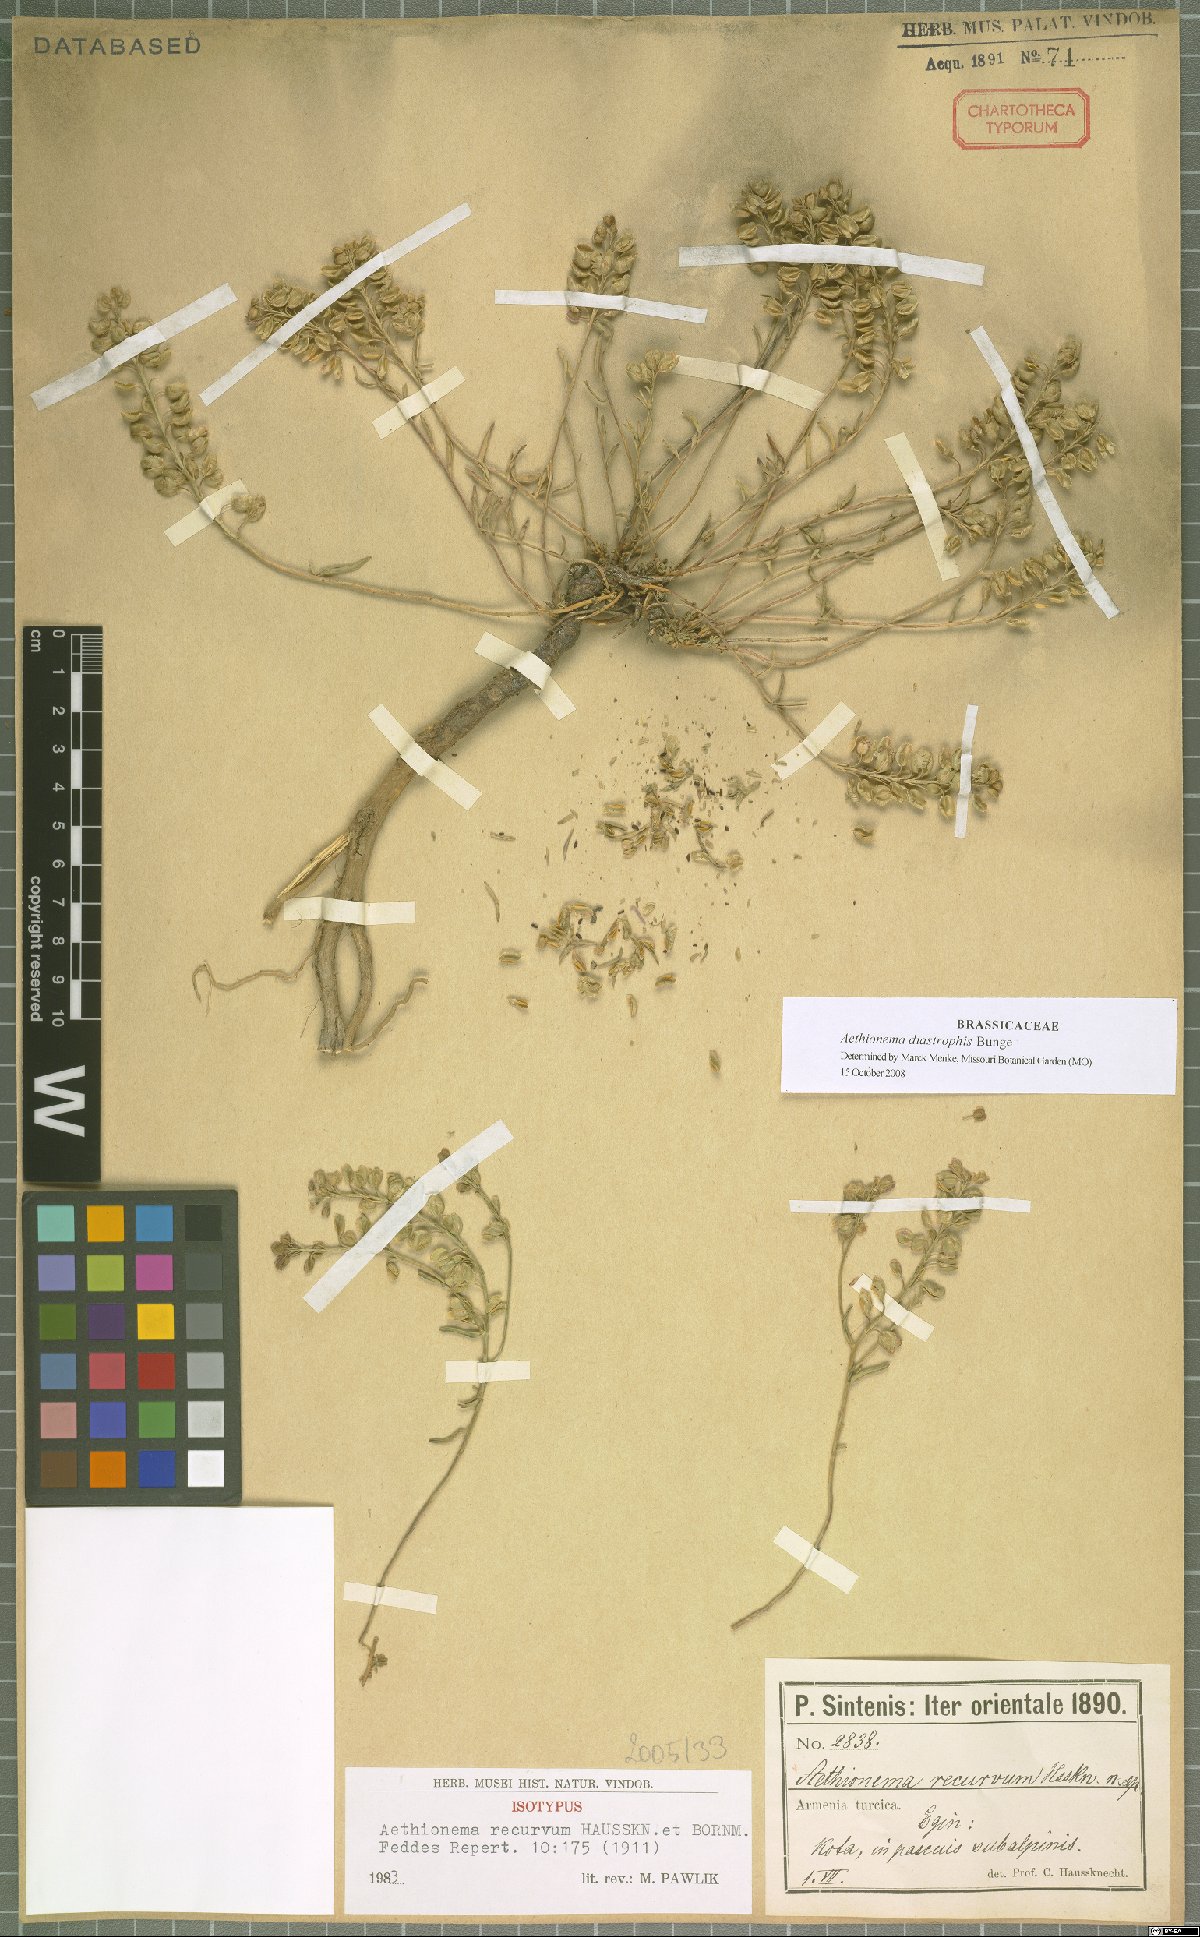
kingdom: Plantae
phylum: Tracheophyta
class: Magnoliopsida
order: Brassicales
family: Brassicaceae
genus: Aethionema
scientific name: Aethionema diastrophis
